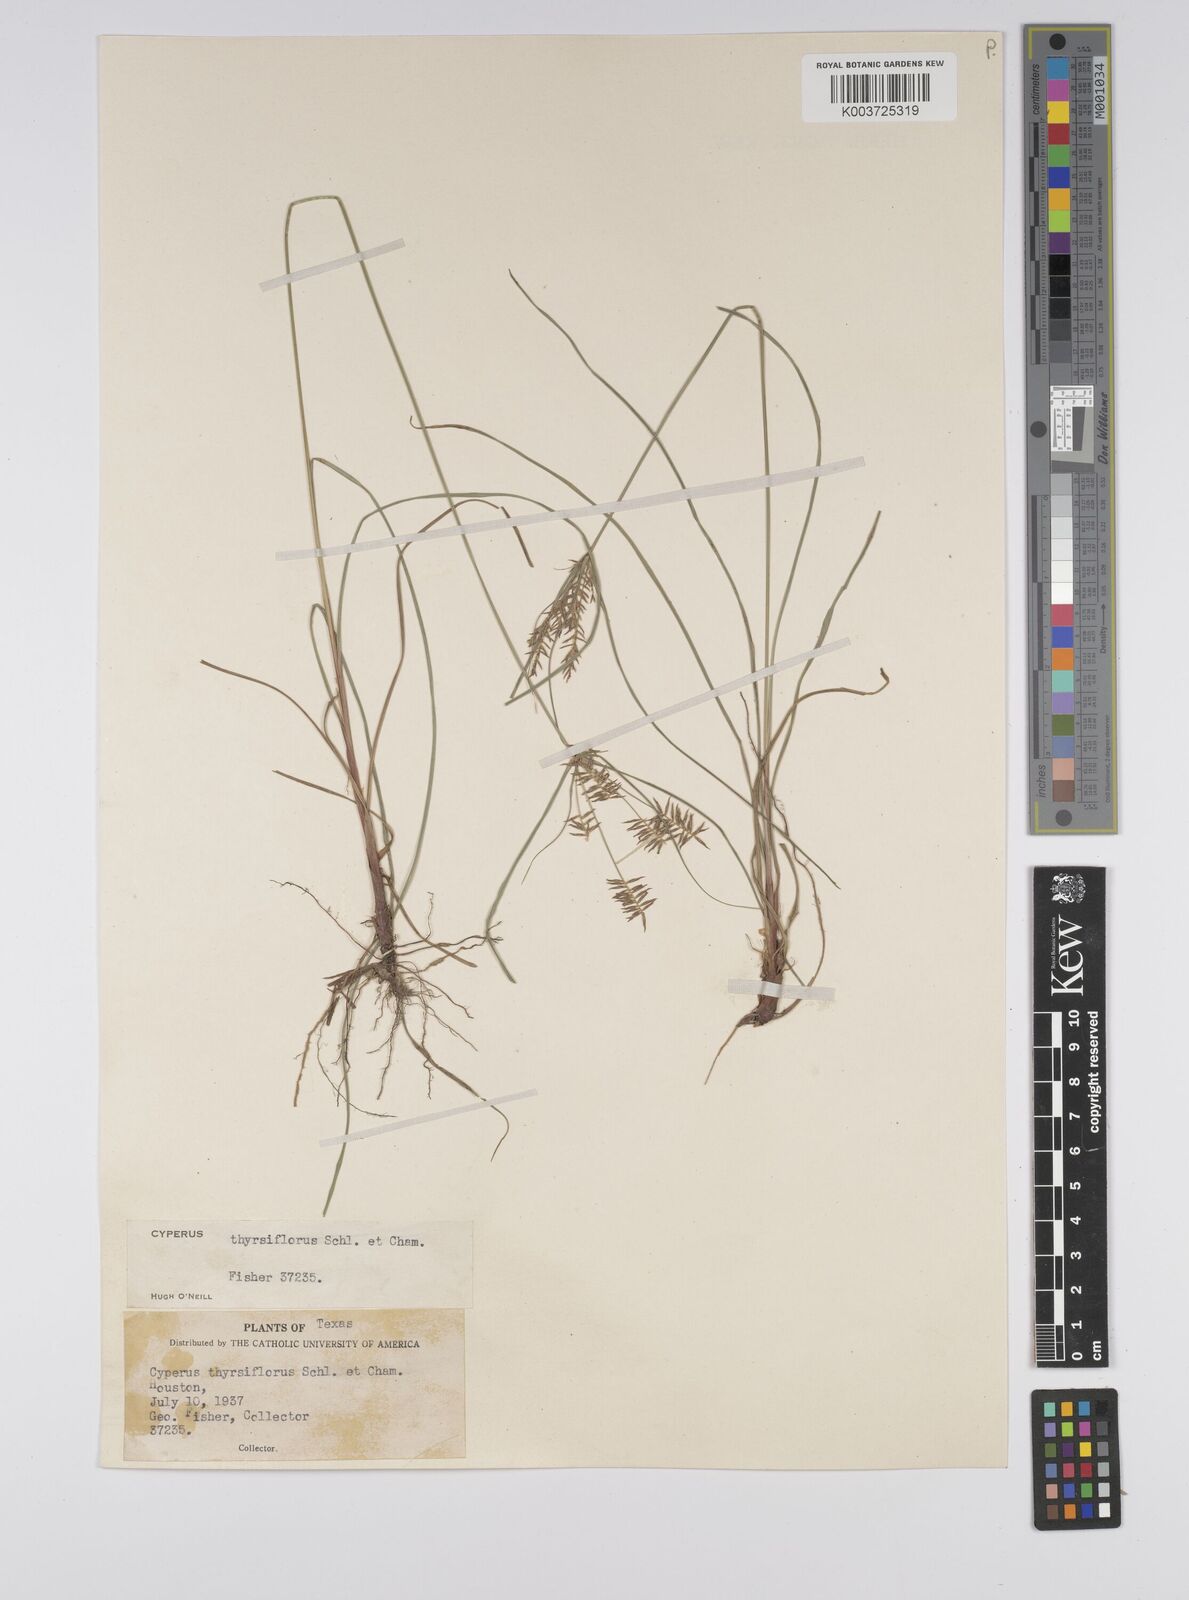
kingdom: Plantae
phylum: Tracheophyta
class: Liliopsida
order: Poales
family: Cyperaceae
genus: Cyperus
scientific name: Cyperus
